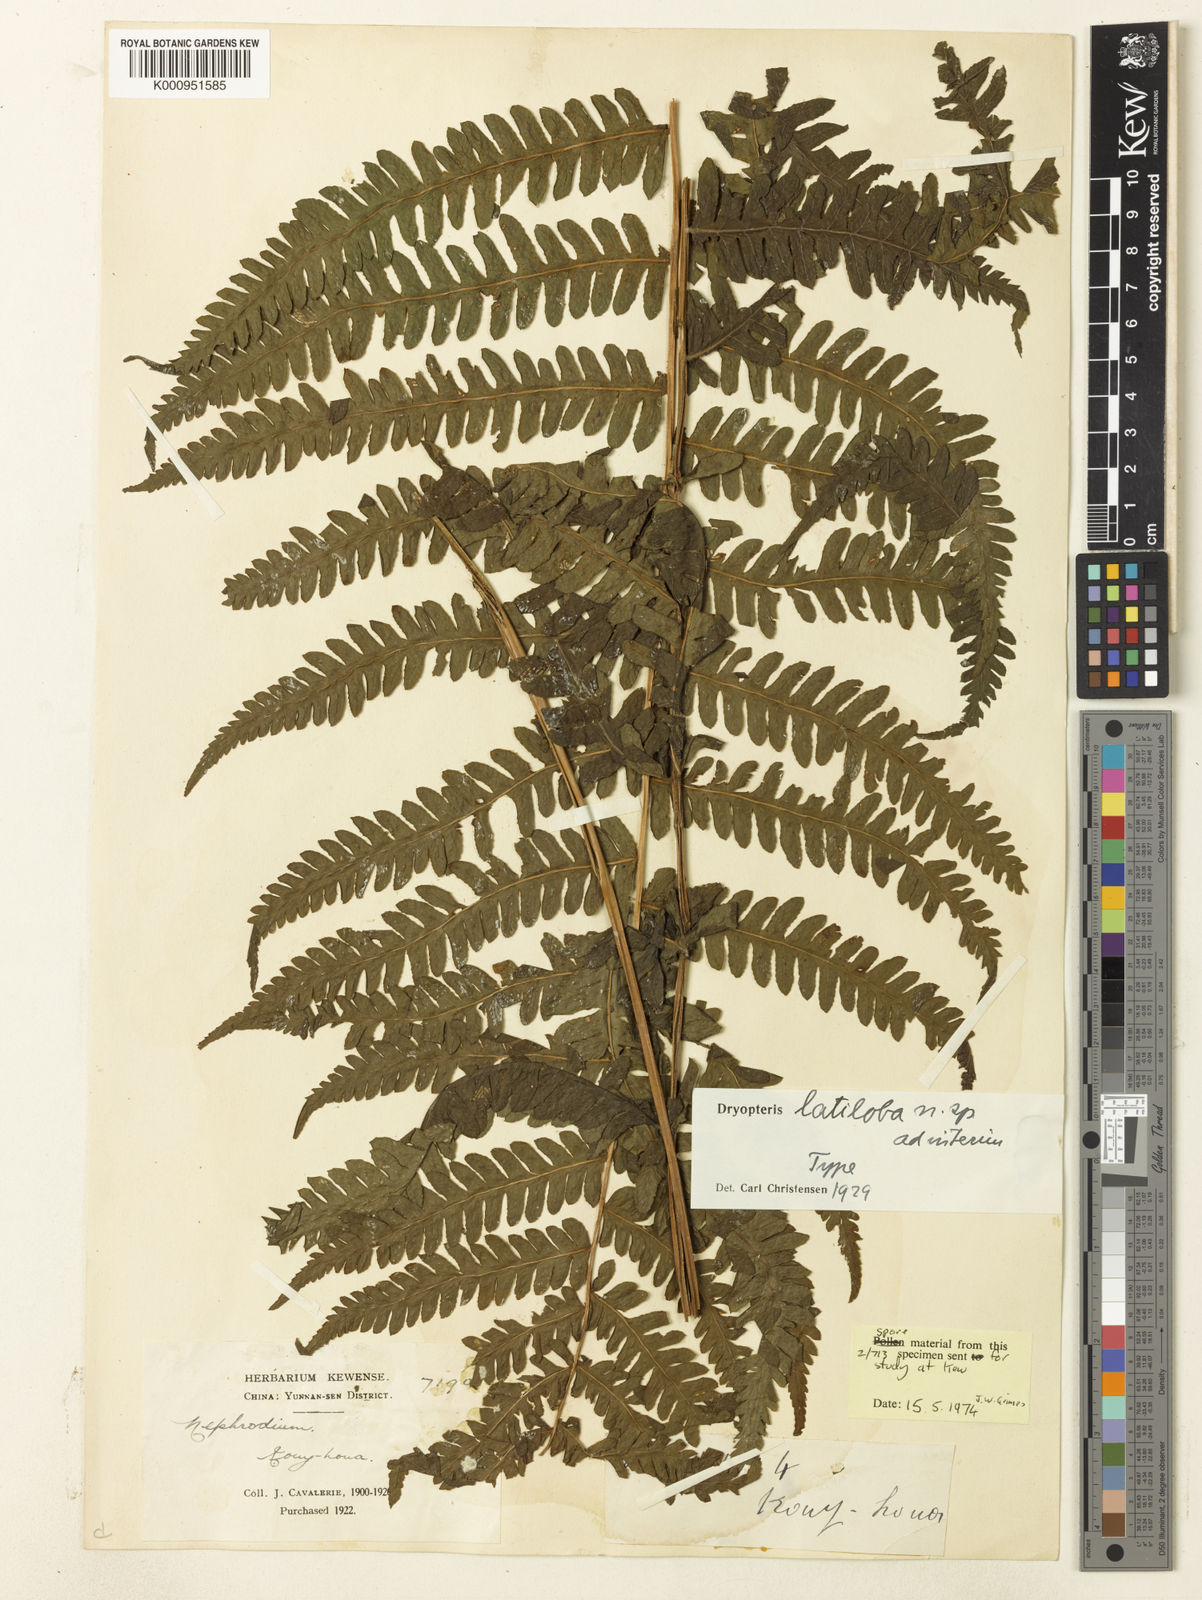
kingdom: Plantae
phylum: Tracheophyta
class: Polypodiopsida
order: Polypodiales
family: Thelypteridaceae
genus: Pseudocyclosorus
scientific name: Pseudocyclosorus esquirolii
